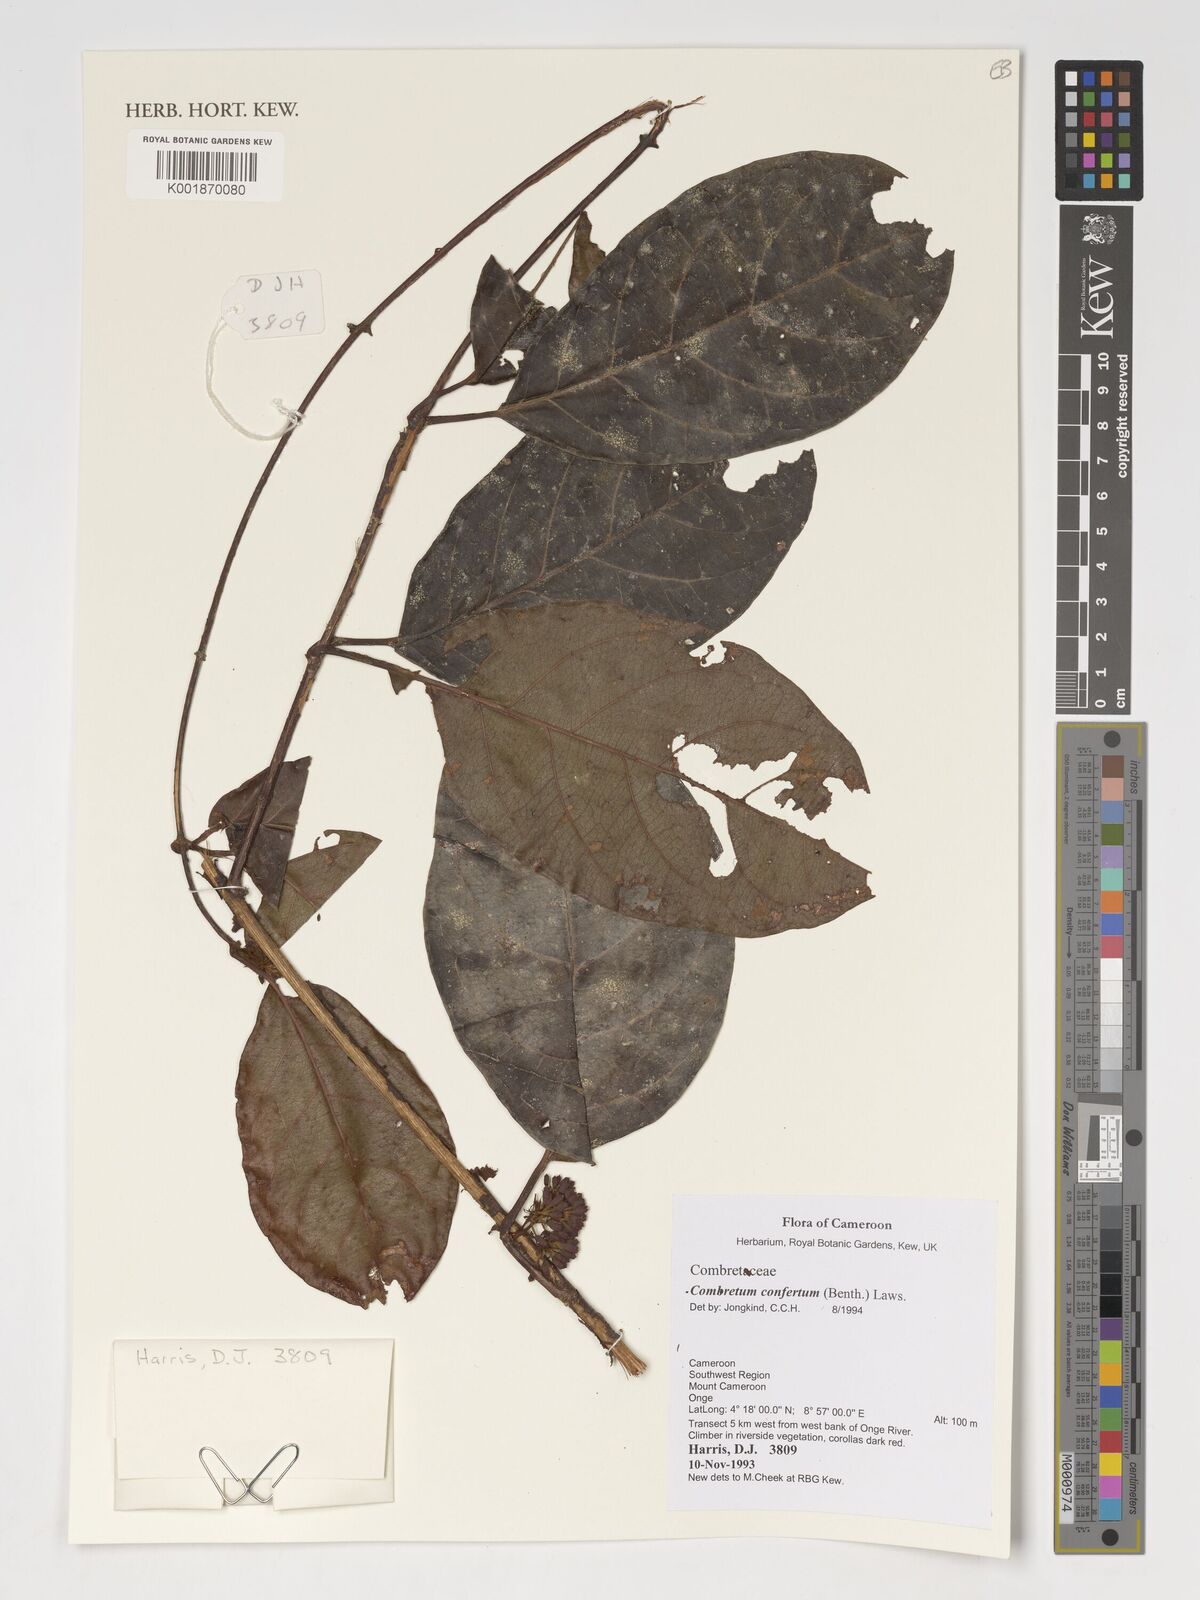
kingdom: Plantae
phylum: Tracheophyta
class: Magnoliopsida
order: Myrtales
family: Combretaceae
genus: Combretum
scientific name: Combretum confertum
